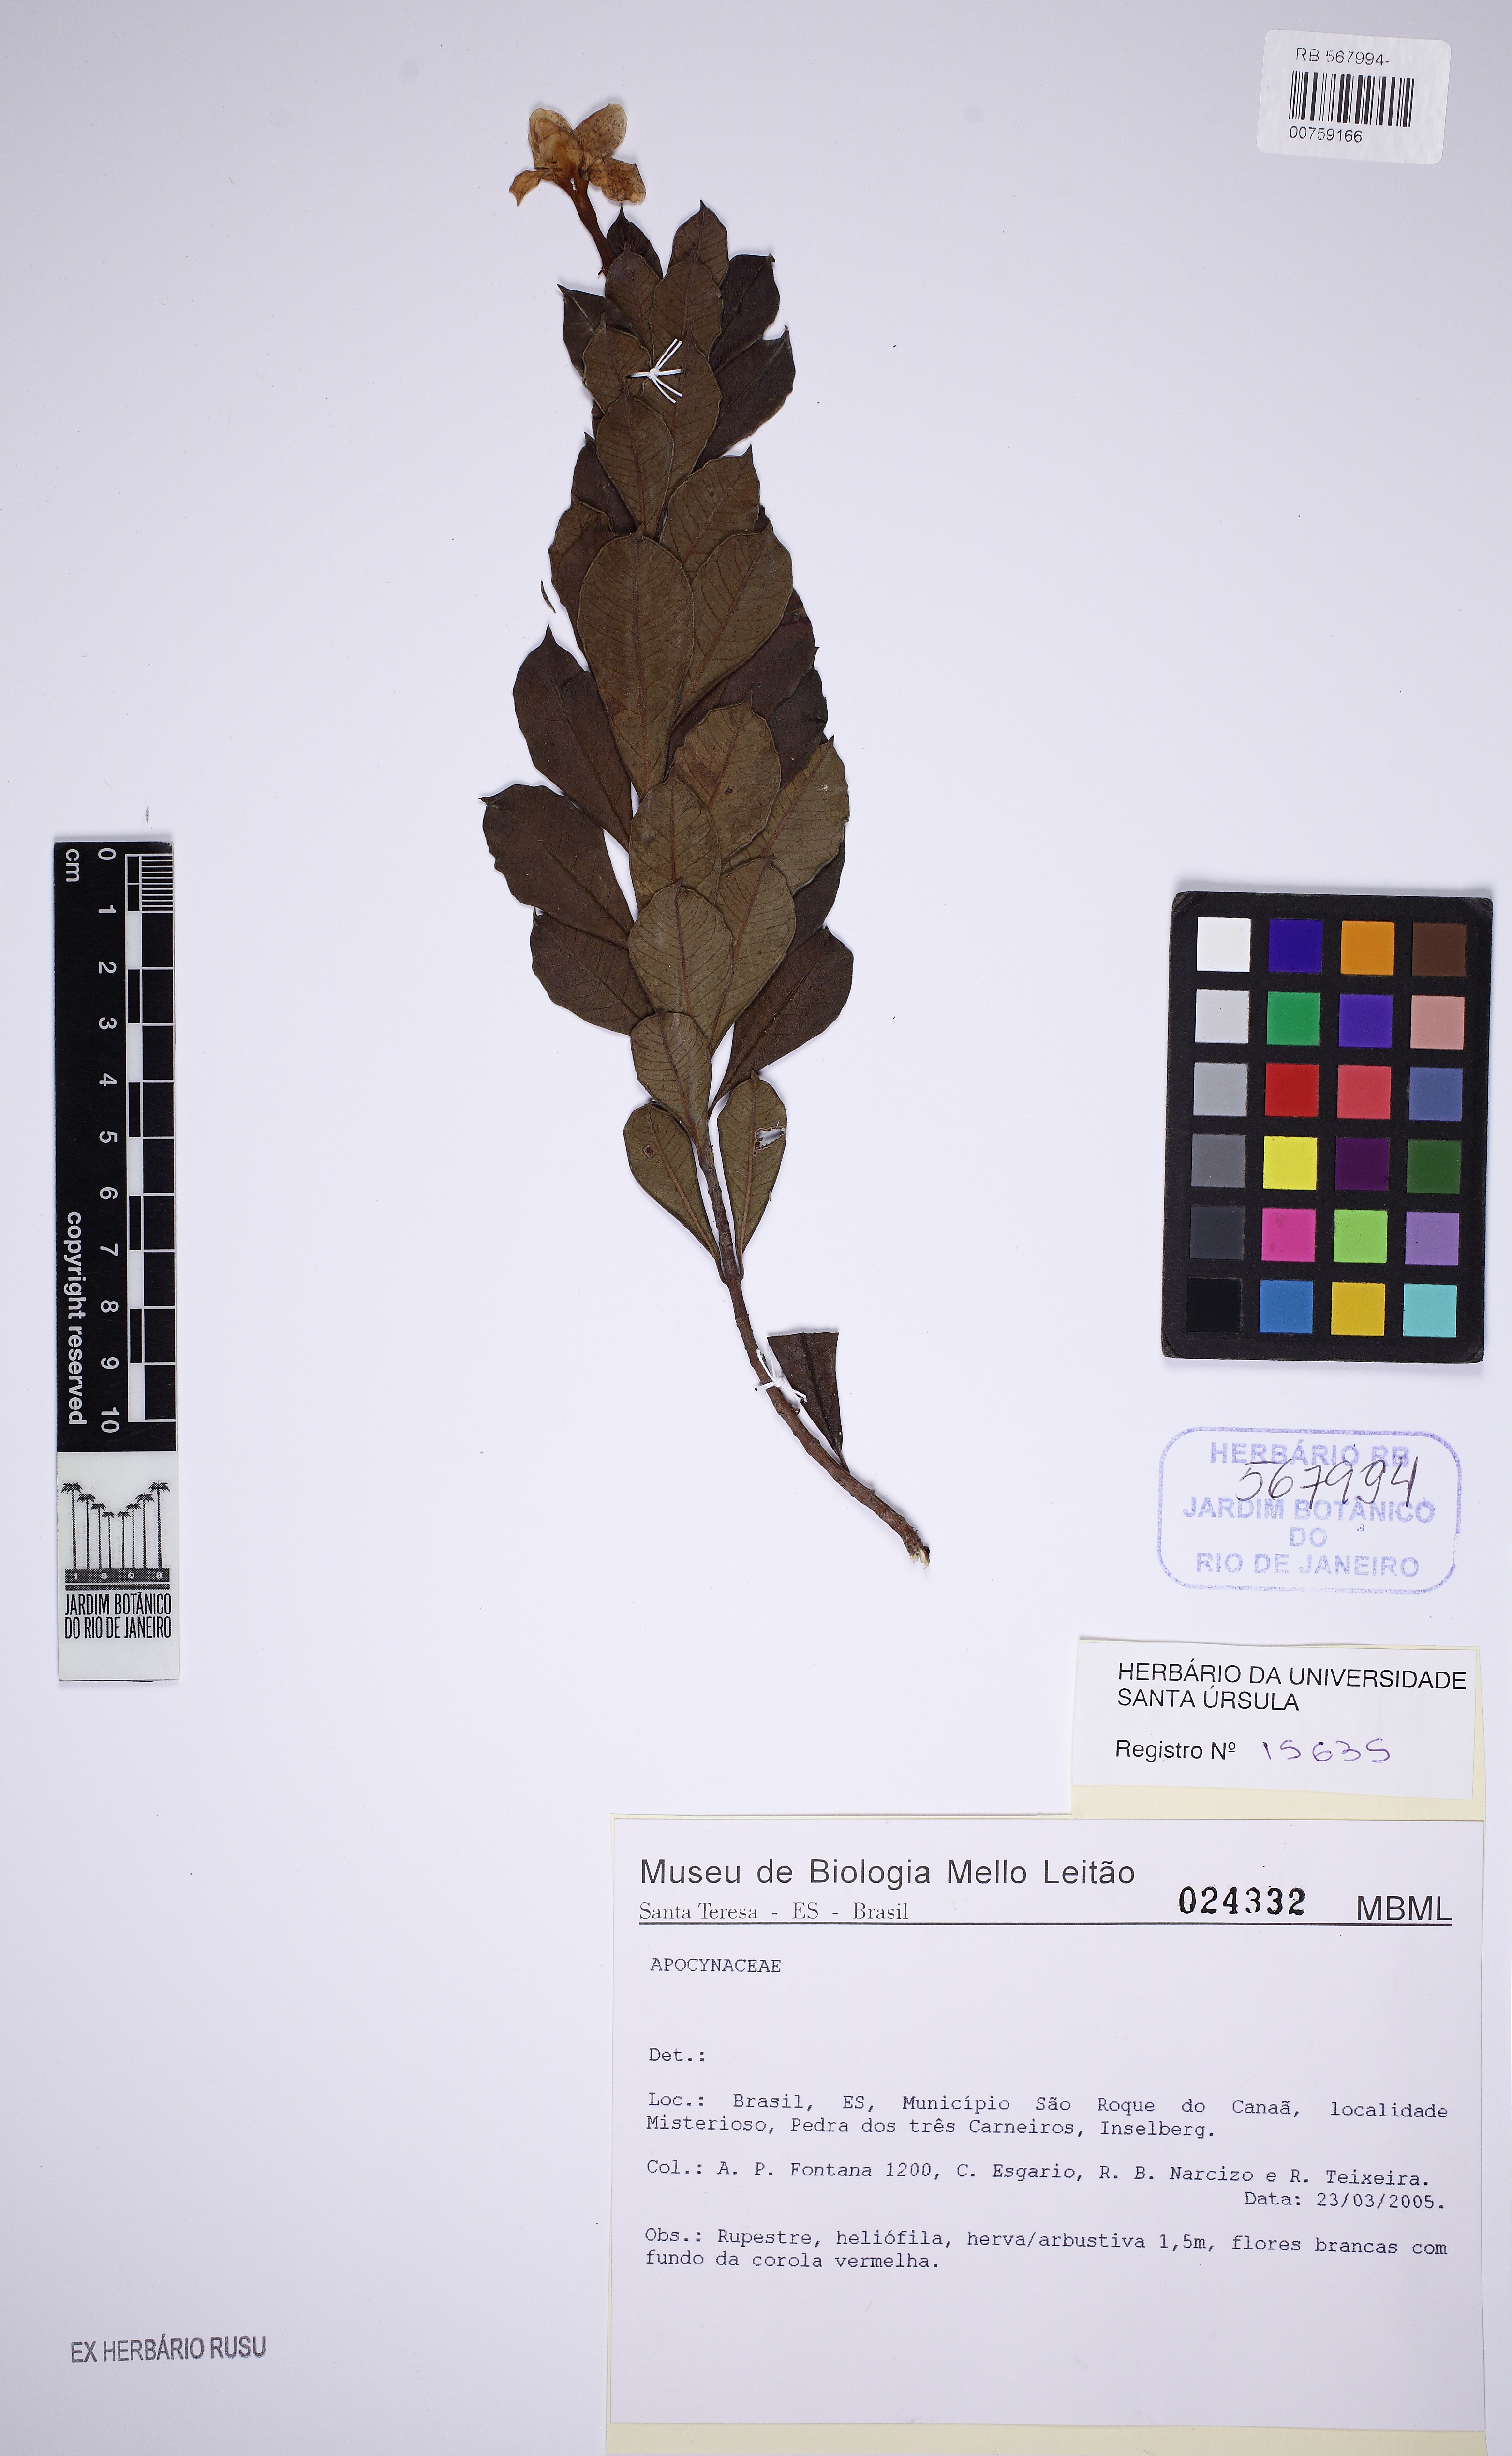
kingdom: Plantae
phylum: Tracheophyta
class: Magnoliopsida
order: Gentianales
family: Apocynaceae
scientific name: Apocynaceae
